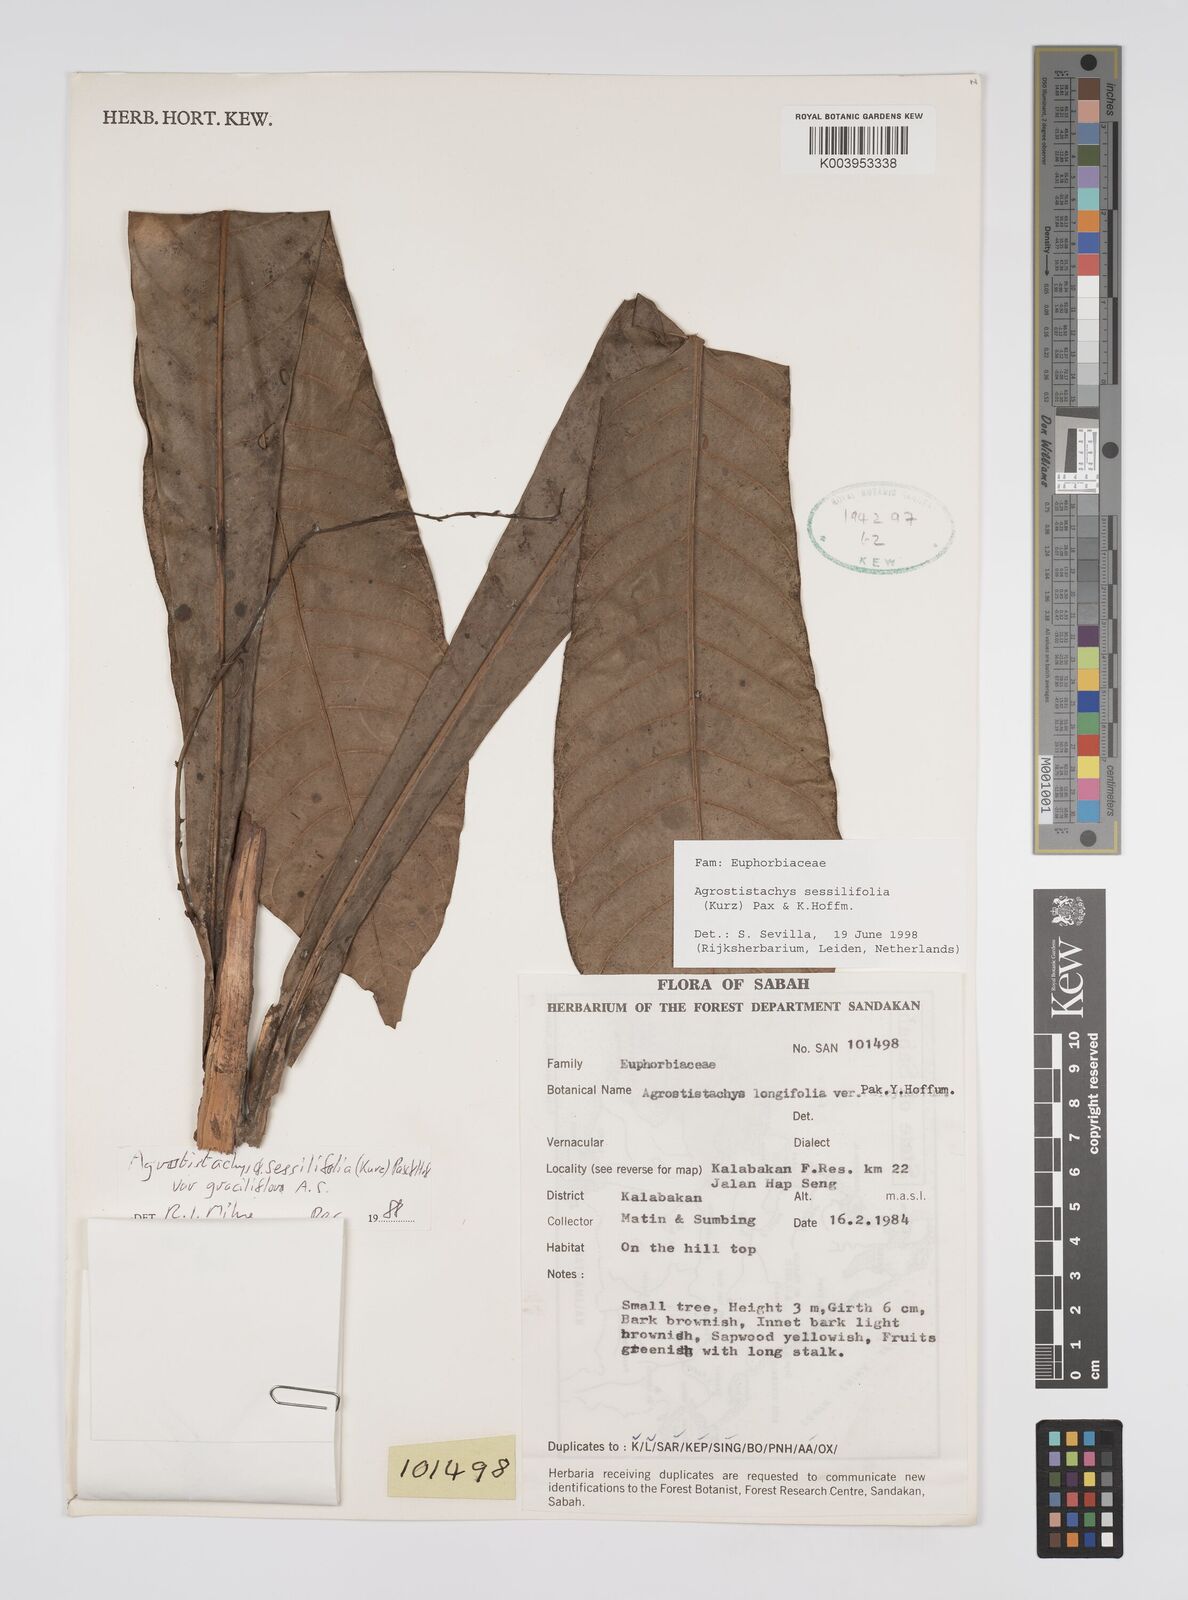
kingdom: Plantae
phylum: Tracheophyta
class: Magnoliopsida
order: Malpighiales
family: Euphorbiaceae
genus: Agrostistachys
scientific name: Agrostistachys sessilifolia
